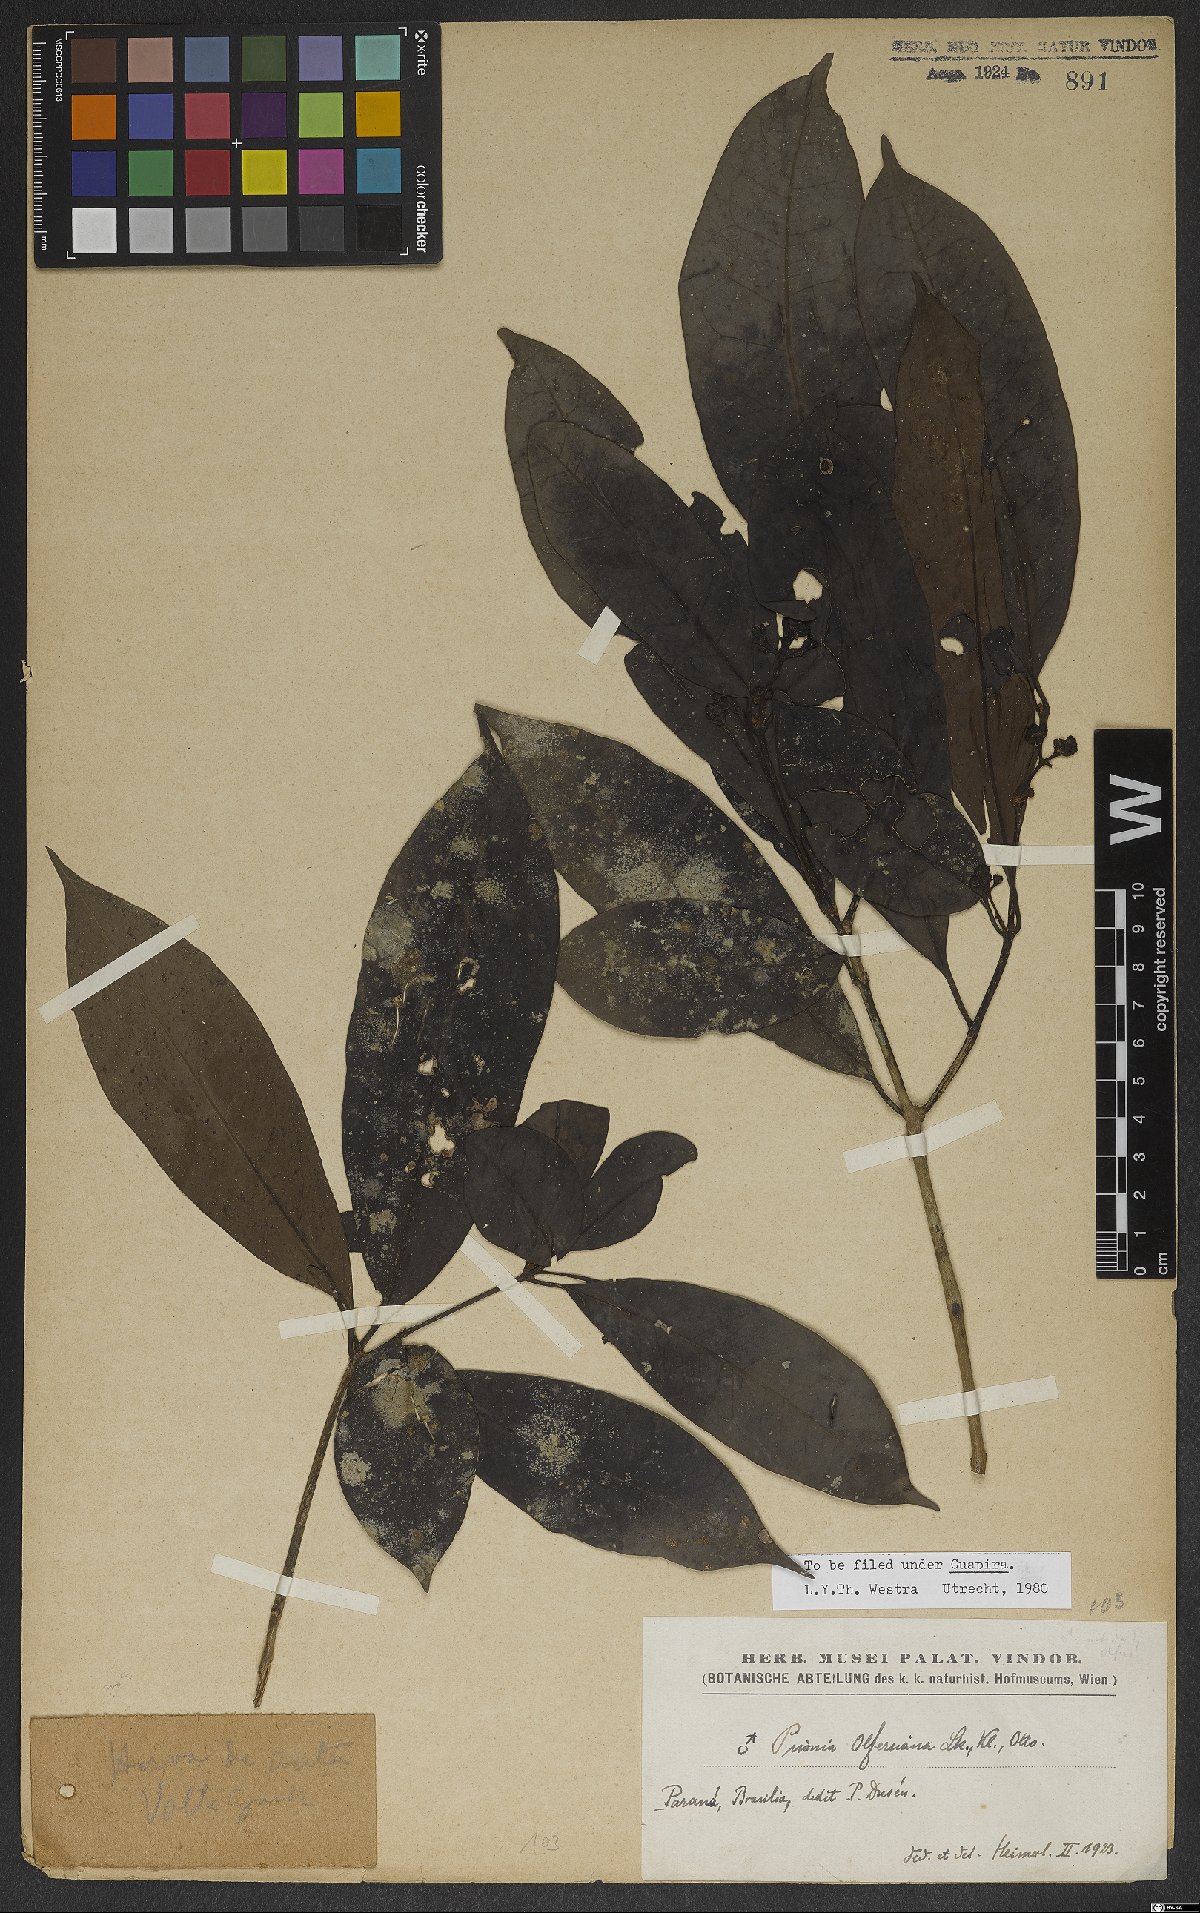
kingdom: Plantae
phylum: Tracheophyta
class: Magnoliopsida
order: Caryophyllales
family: Nyctaginaceae
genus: Guapira
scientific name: Guapira opposita
